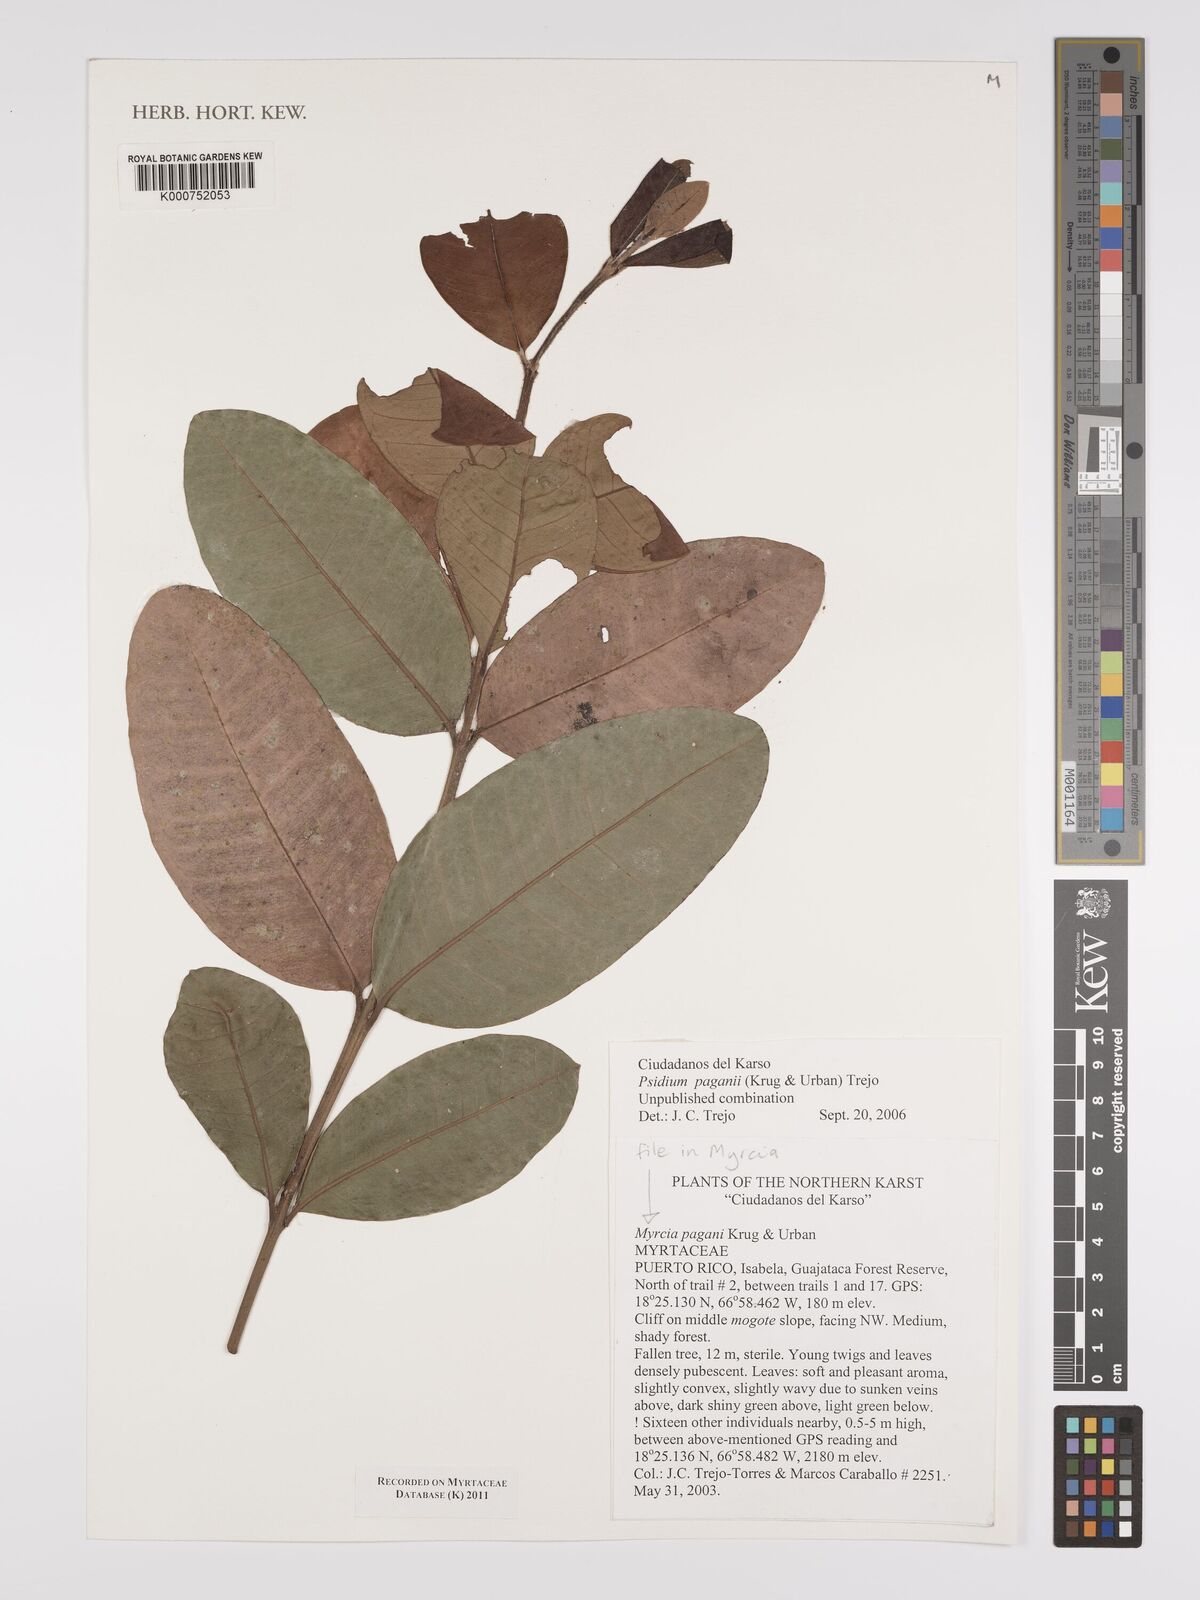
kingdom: Plantae
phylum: Tracheophyta
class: Magnoliopsida
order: Myrtales
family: Myrtaceae
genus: Psidium
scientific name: Psidium
